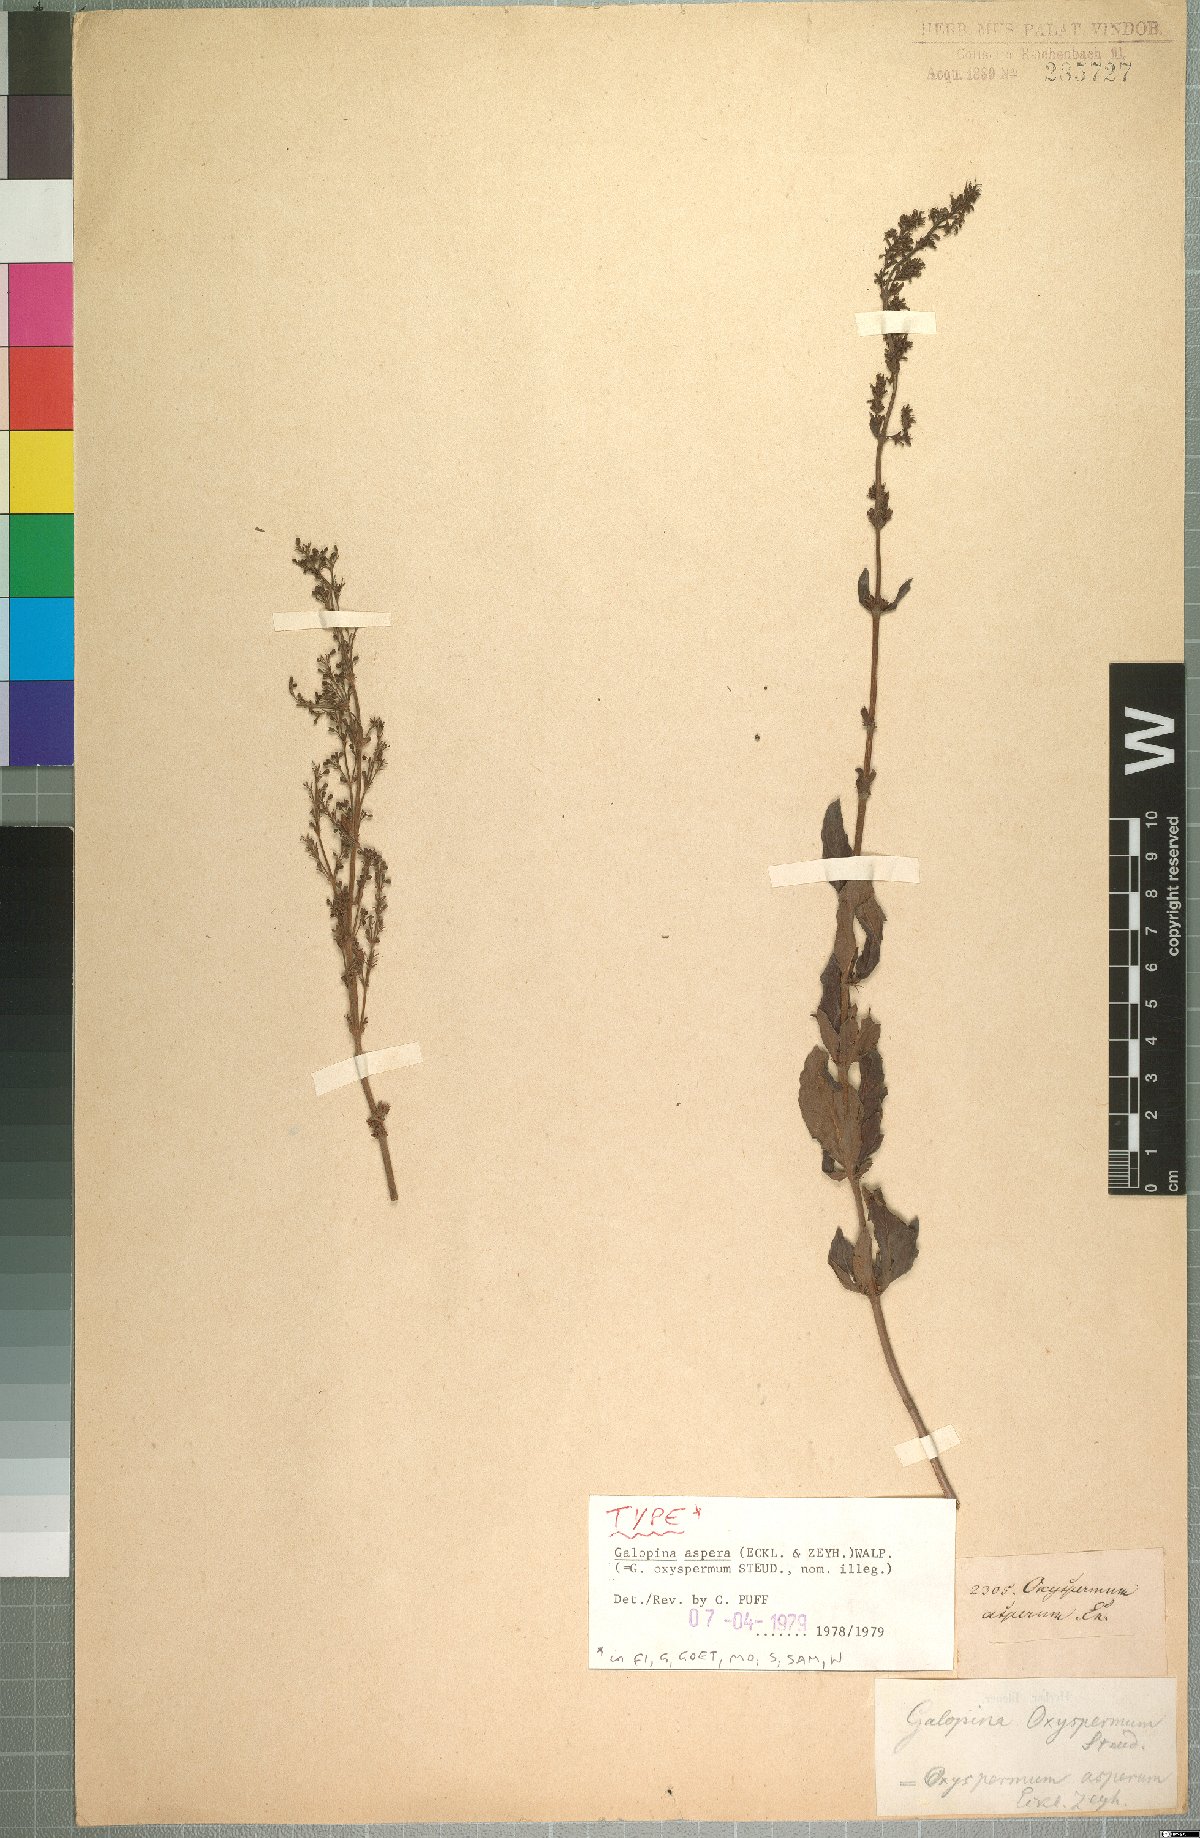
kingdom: Plantae
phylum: Tracheophyta
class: Magnoliopsida
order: Gentianales
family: Rubiaceae
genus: Galopina
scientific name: Galopina aspera
